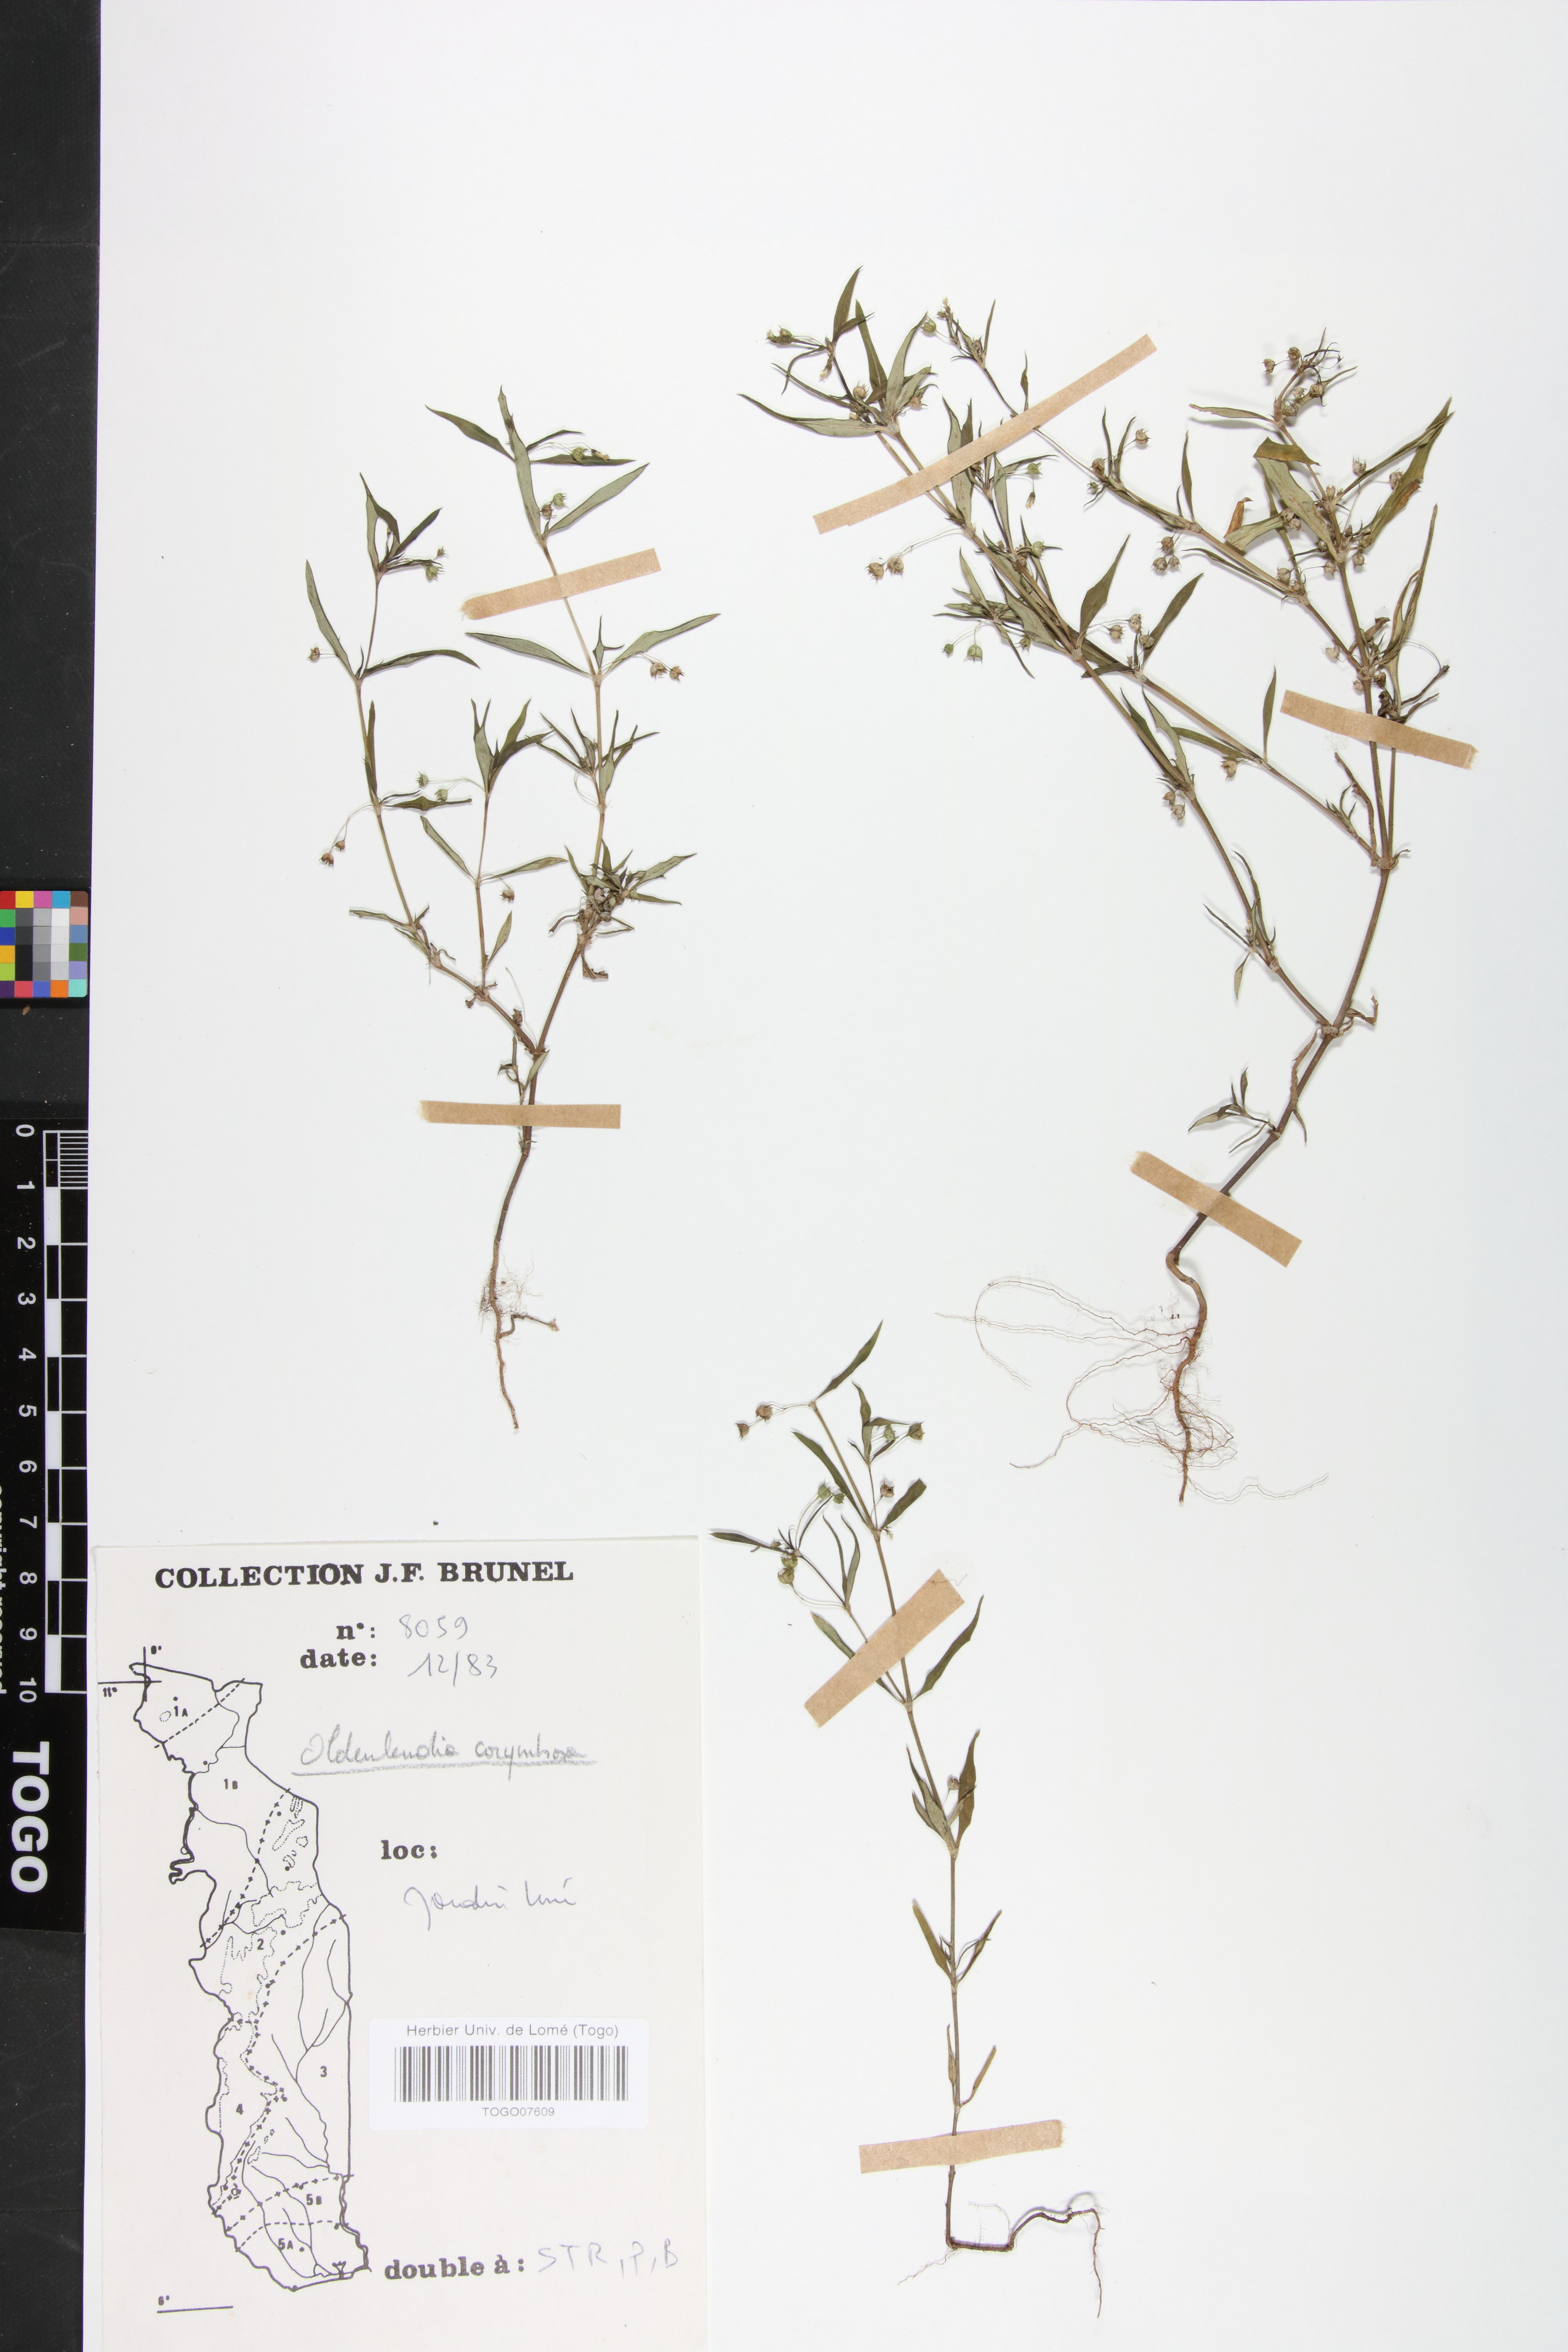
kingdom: Plantae
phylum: Tracheophyta
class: Magnoliopsida
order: Gentianales
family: Rubiaceae
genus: Oldenlandia
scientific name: Oldenlandia corymbosa
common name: Flat-top mille graines
